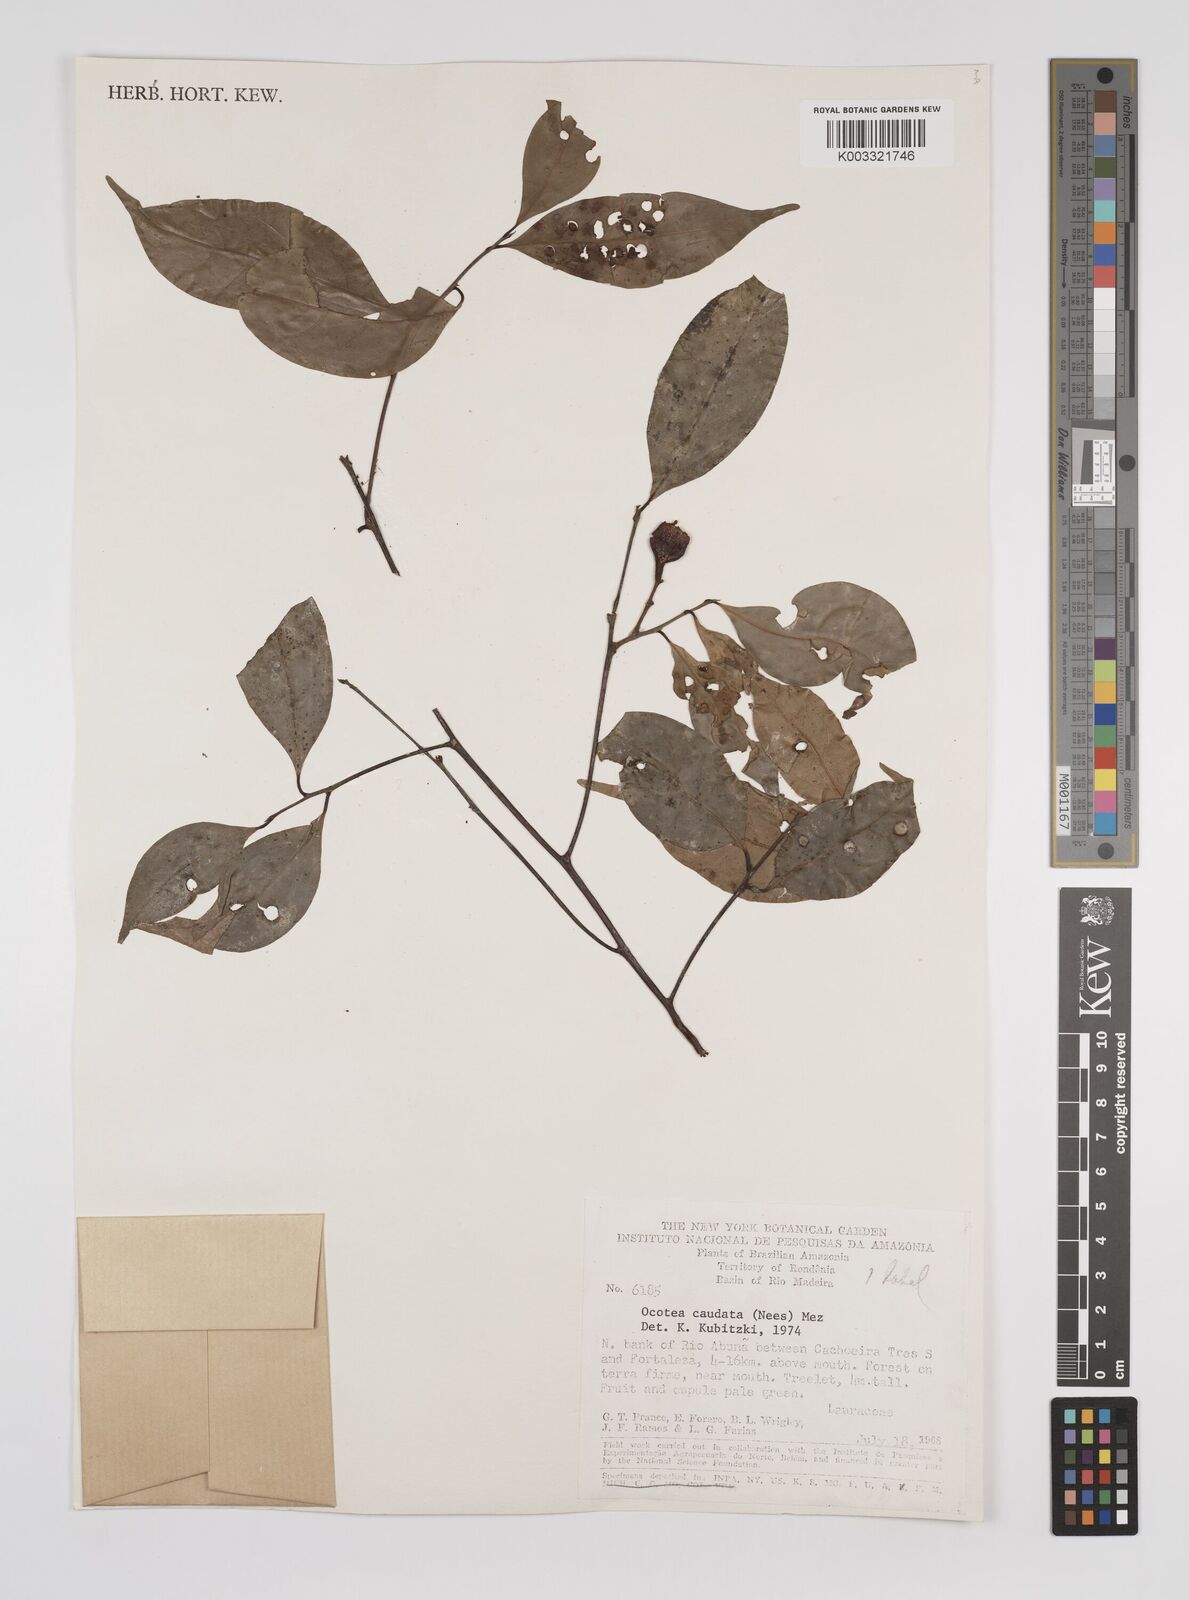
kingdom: Plantae
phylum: Tracheophyta
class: Magnoliopsida
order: Laurales
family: Lauraceae
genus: Ocotea
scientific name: Ocotea leptobotra
